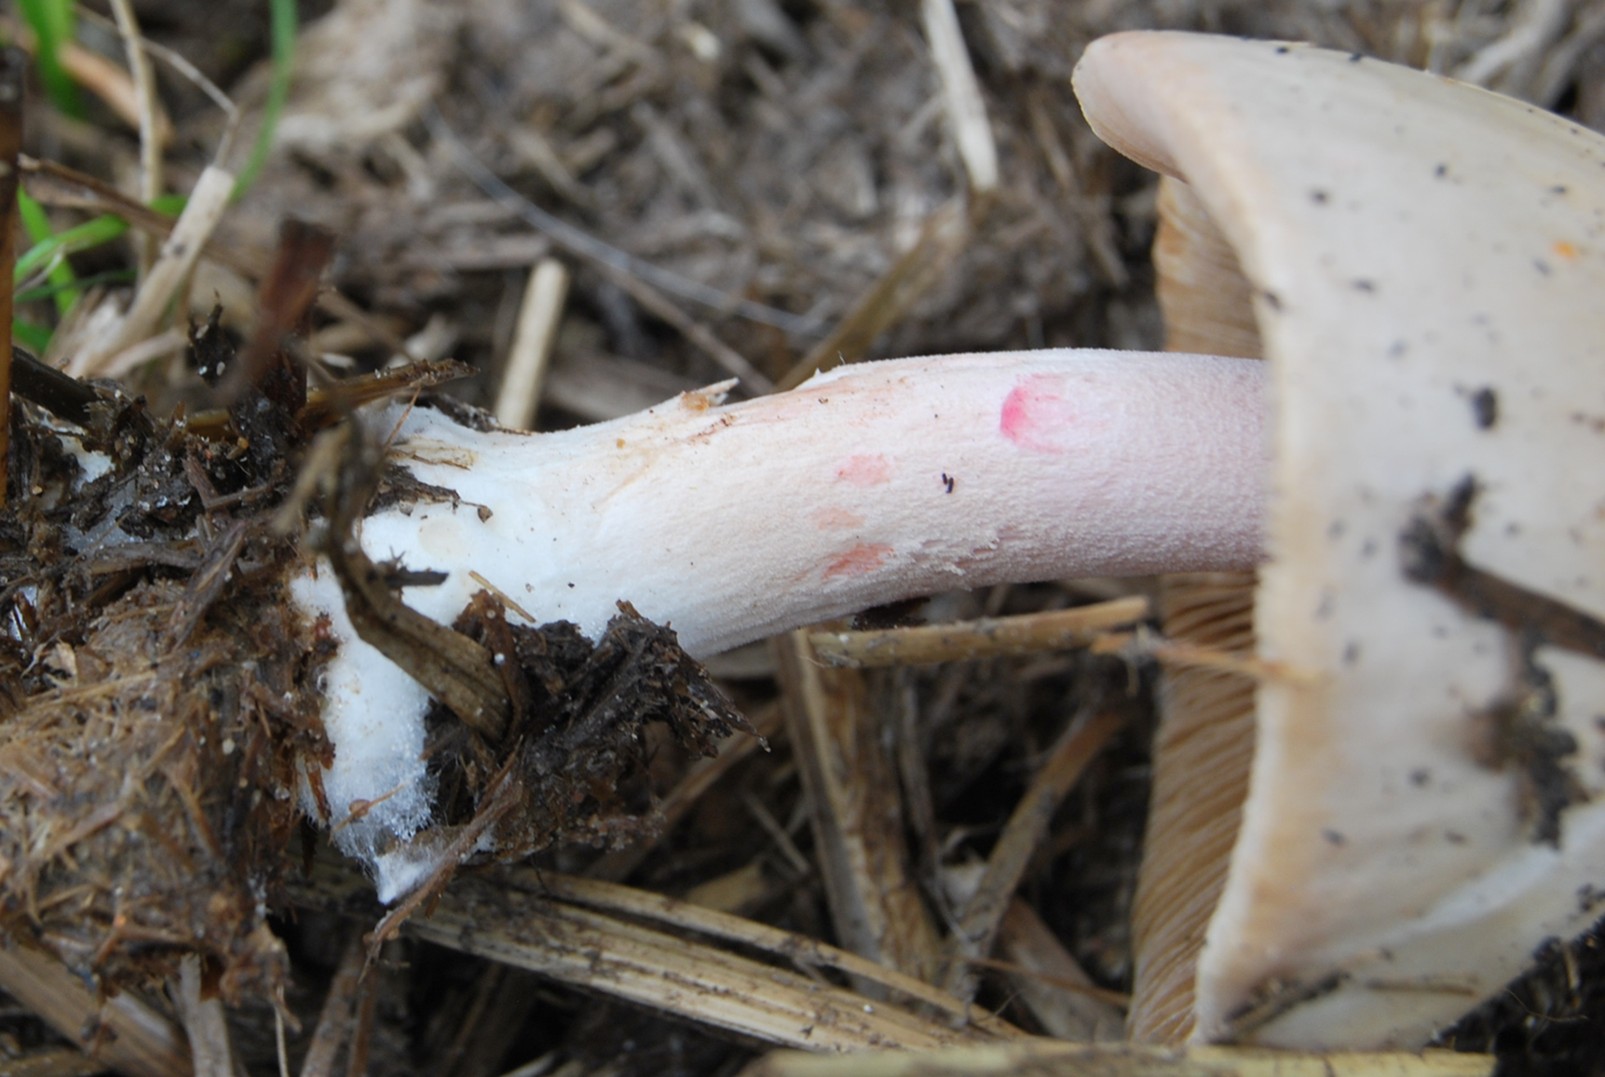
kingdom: Fungi
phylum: Basidiomycota
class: Agaricomycetes
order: Agaricales
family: Bolbitiaceae
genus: Bolbitius
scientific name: Bolbitius coprophilus
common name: rosa gulhat
